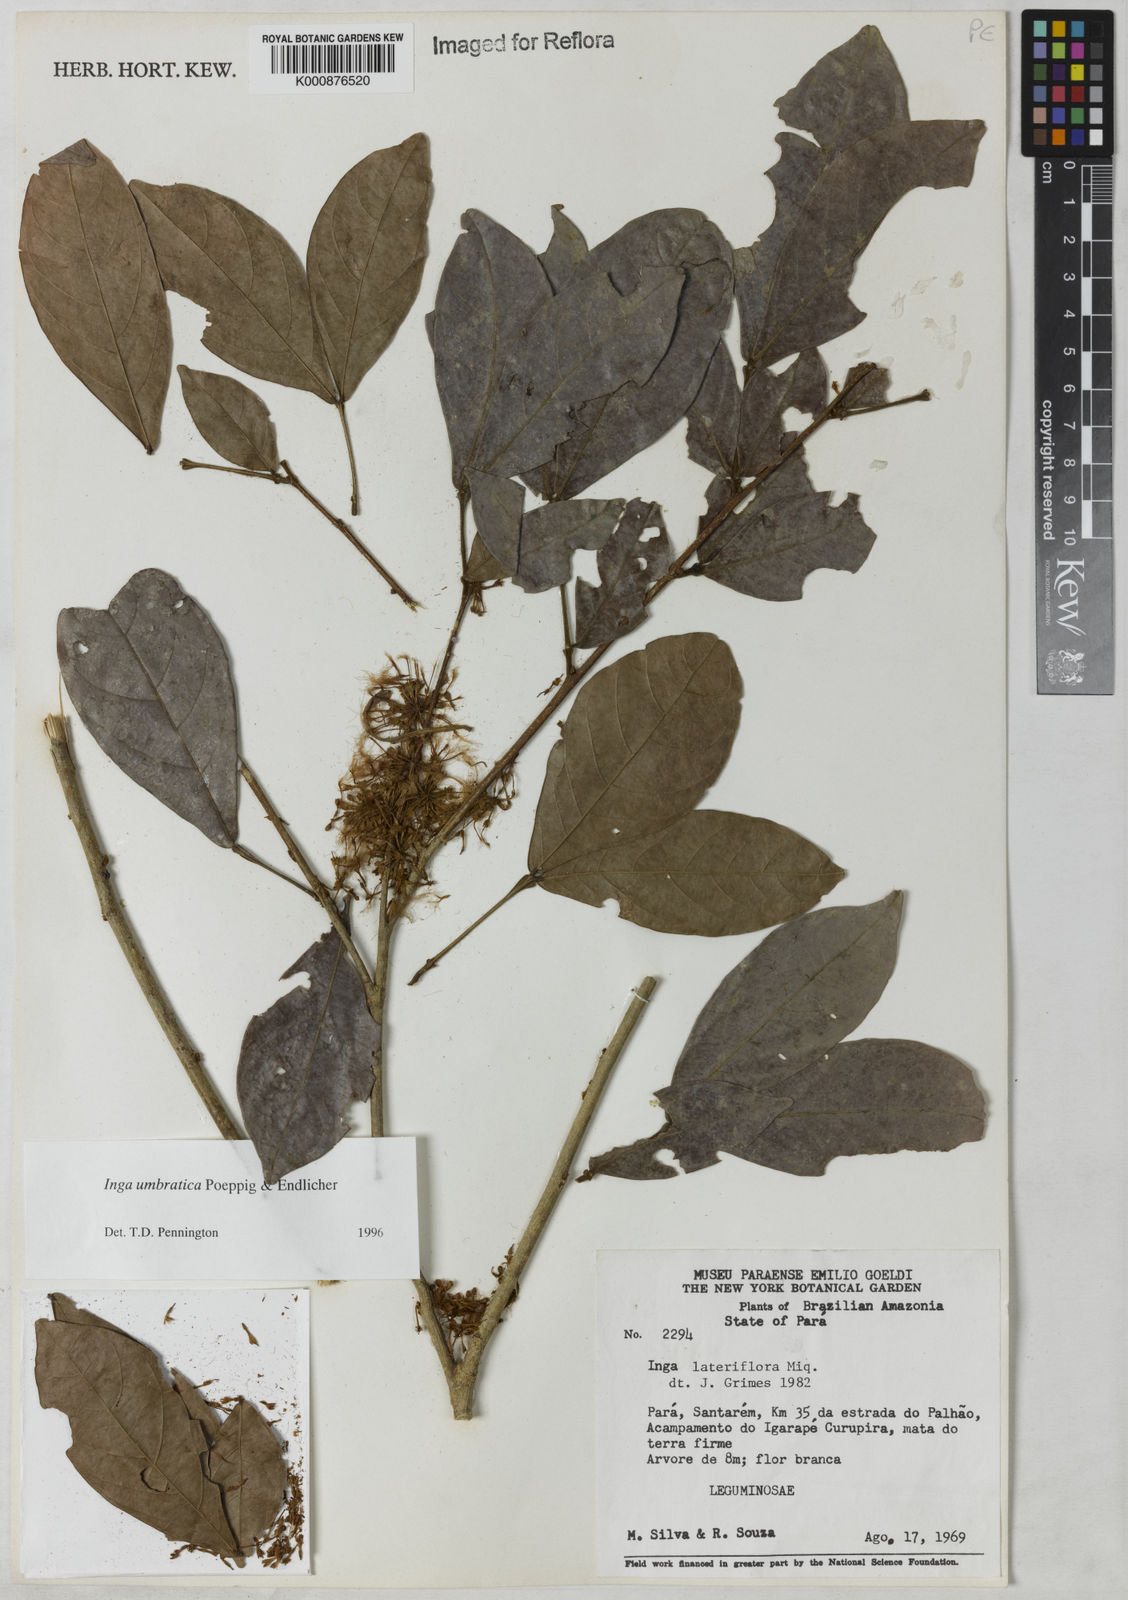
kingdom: Plantae
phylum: Tracheophyta
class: Magnoliopsida
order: Fabales
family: Fabaceae
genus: Inga
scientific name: Inga umbratica
